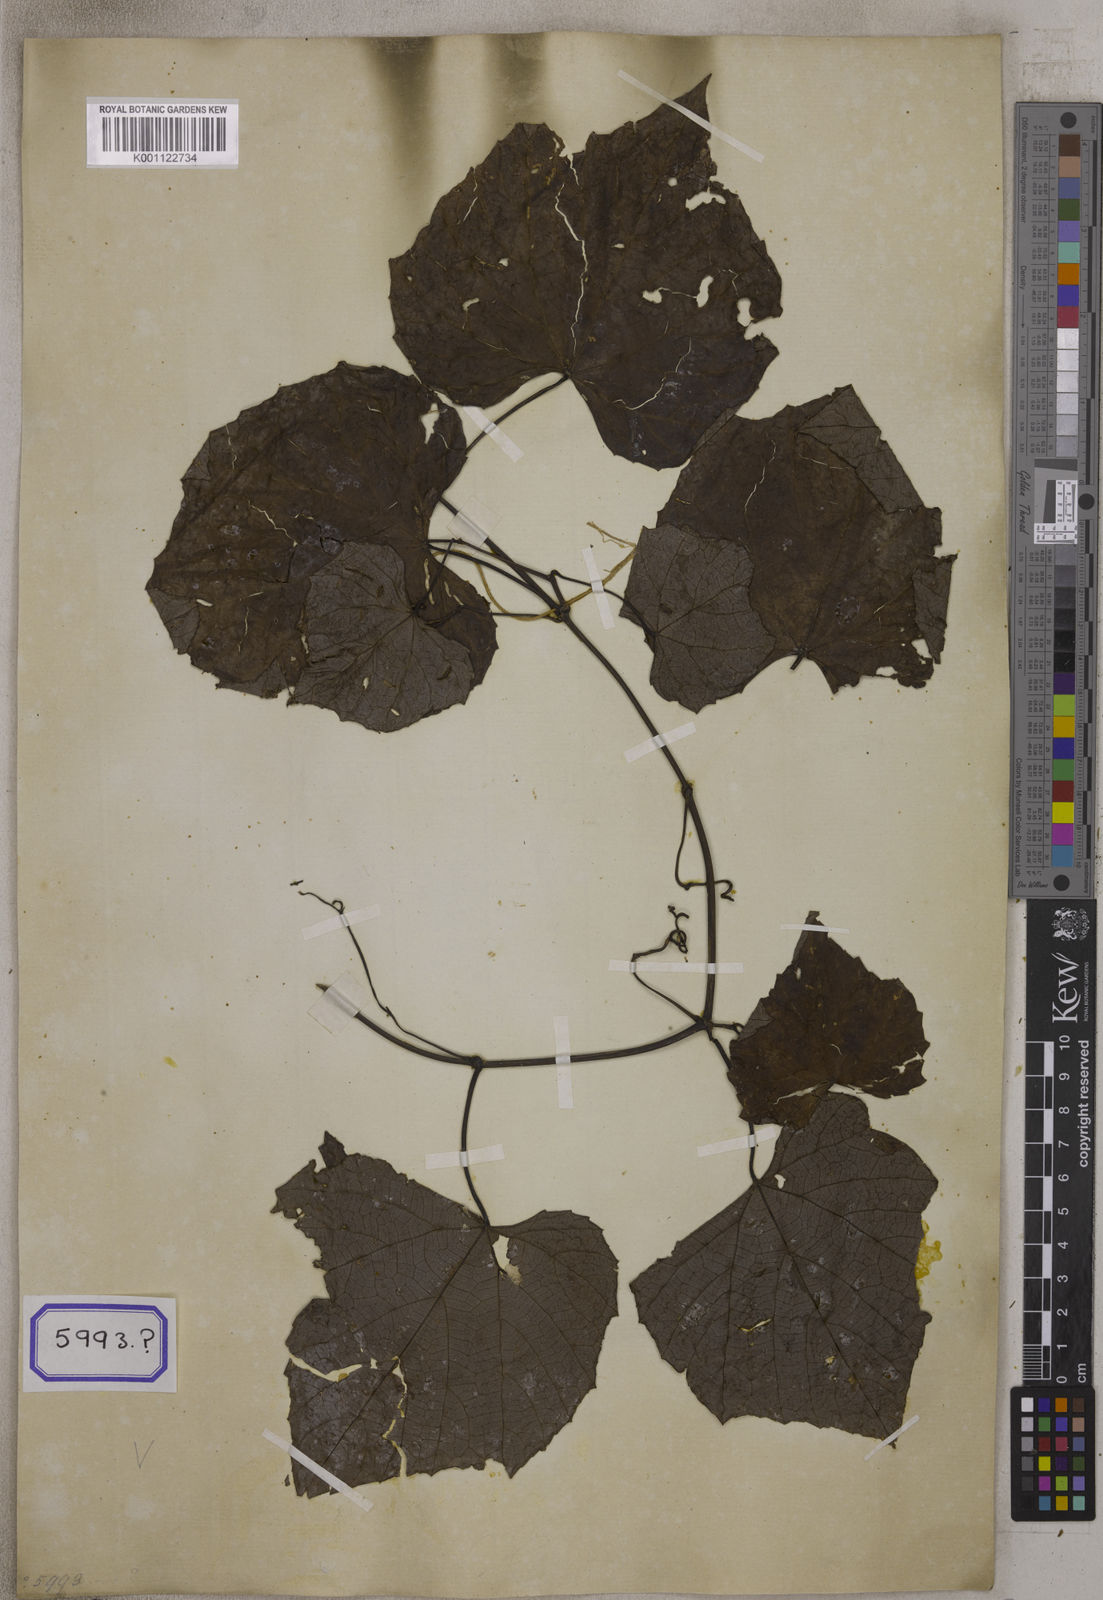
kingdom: Plantae
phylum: Tracheophyta
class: Magnoliopsida
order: Vitales
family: Vitaceae
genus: Ampelocissus
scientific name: Ampelocissus indica
